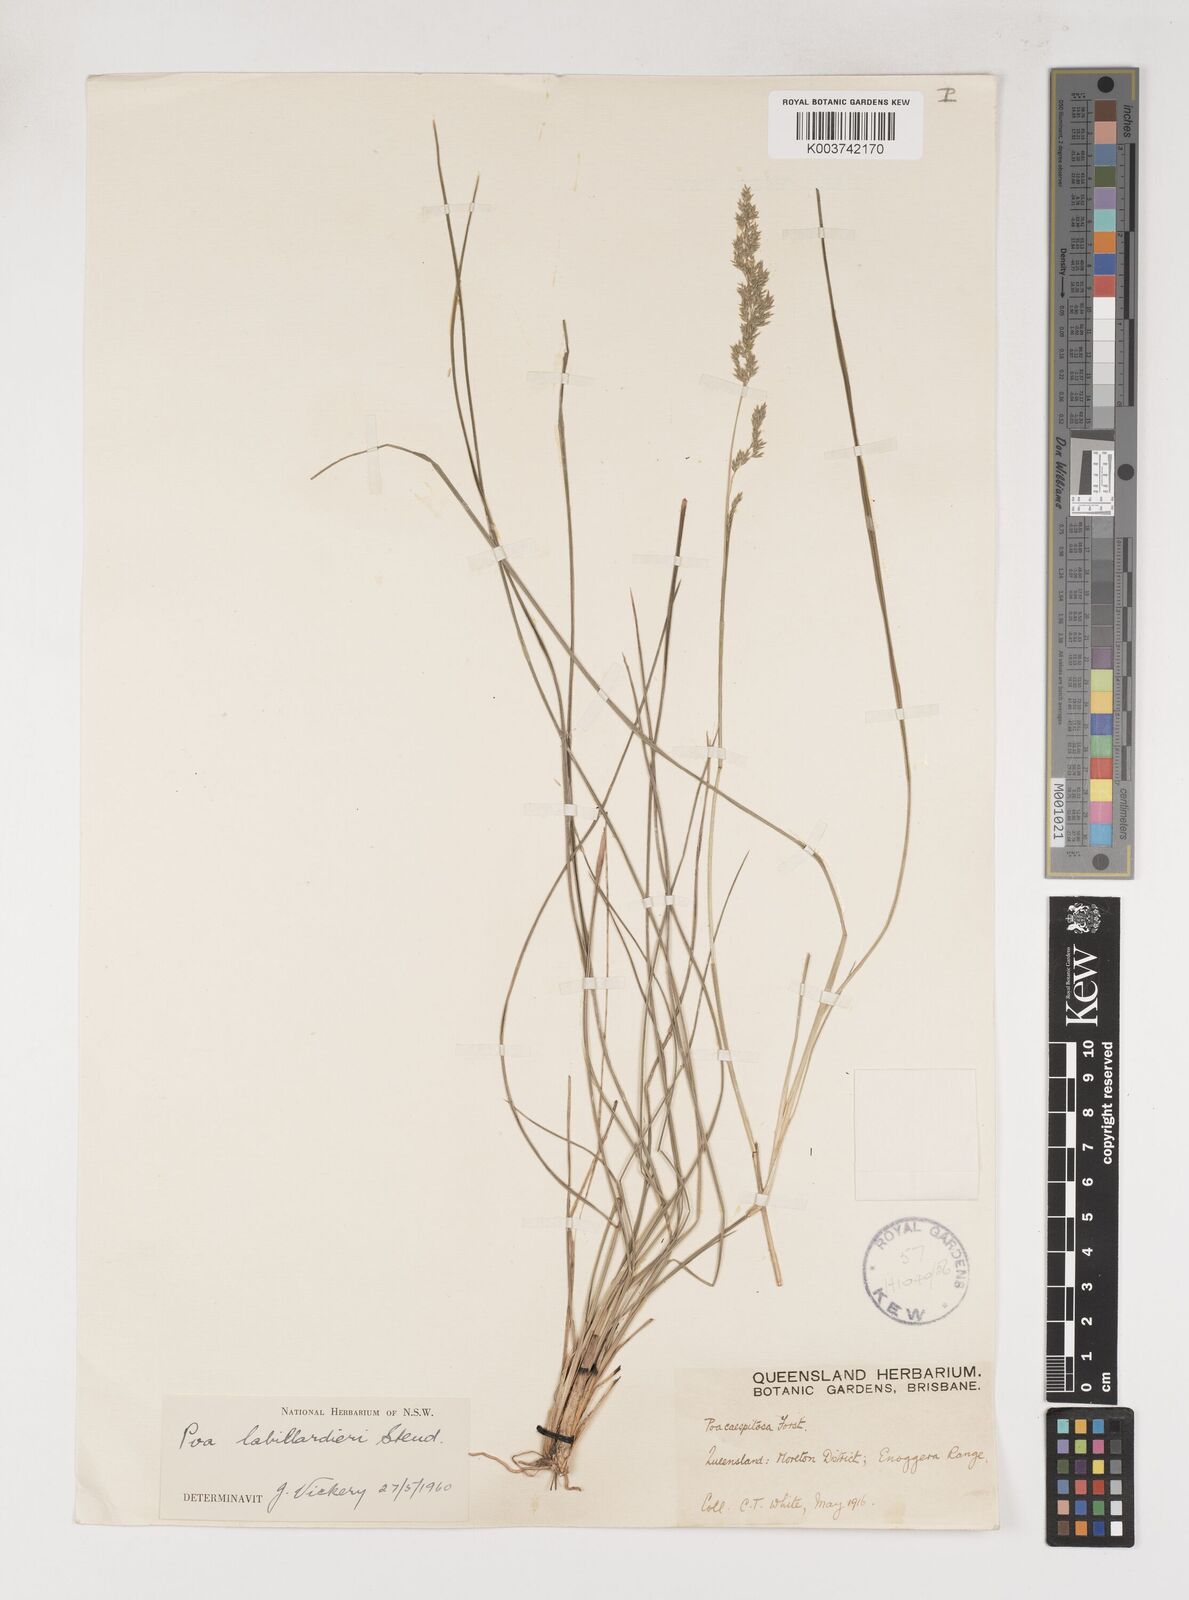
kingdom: Plantae
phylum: Tracheophyta
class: Liliopsida
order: Poales
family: Poaceae
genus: Poa
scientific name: Poa labillardierei
